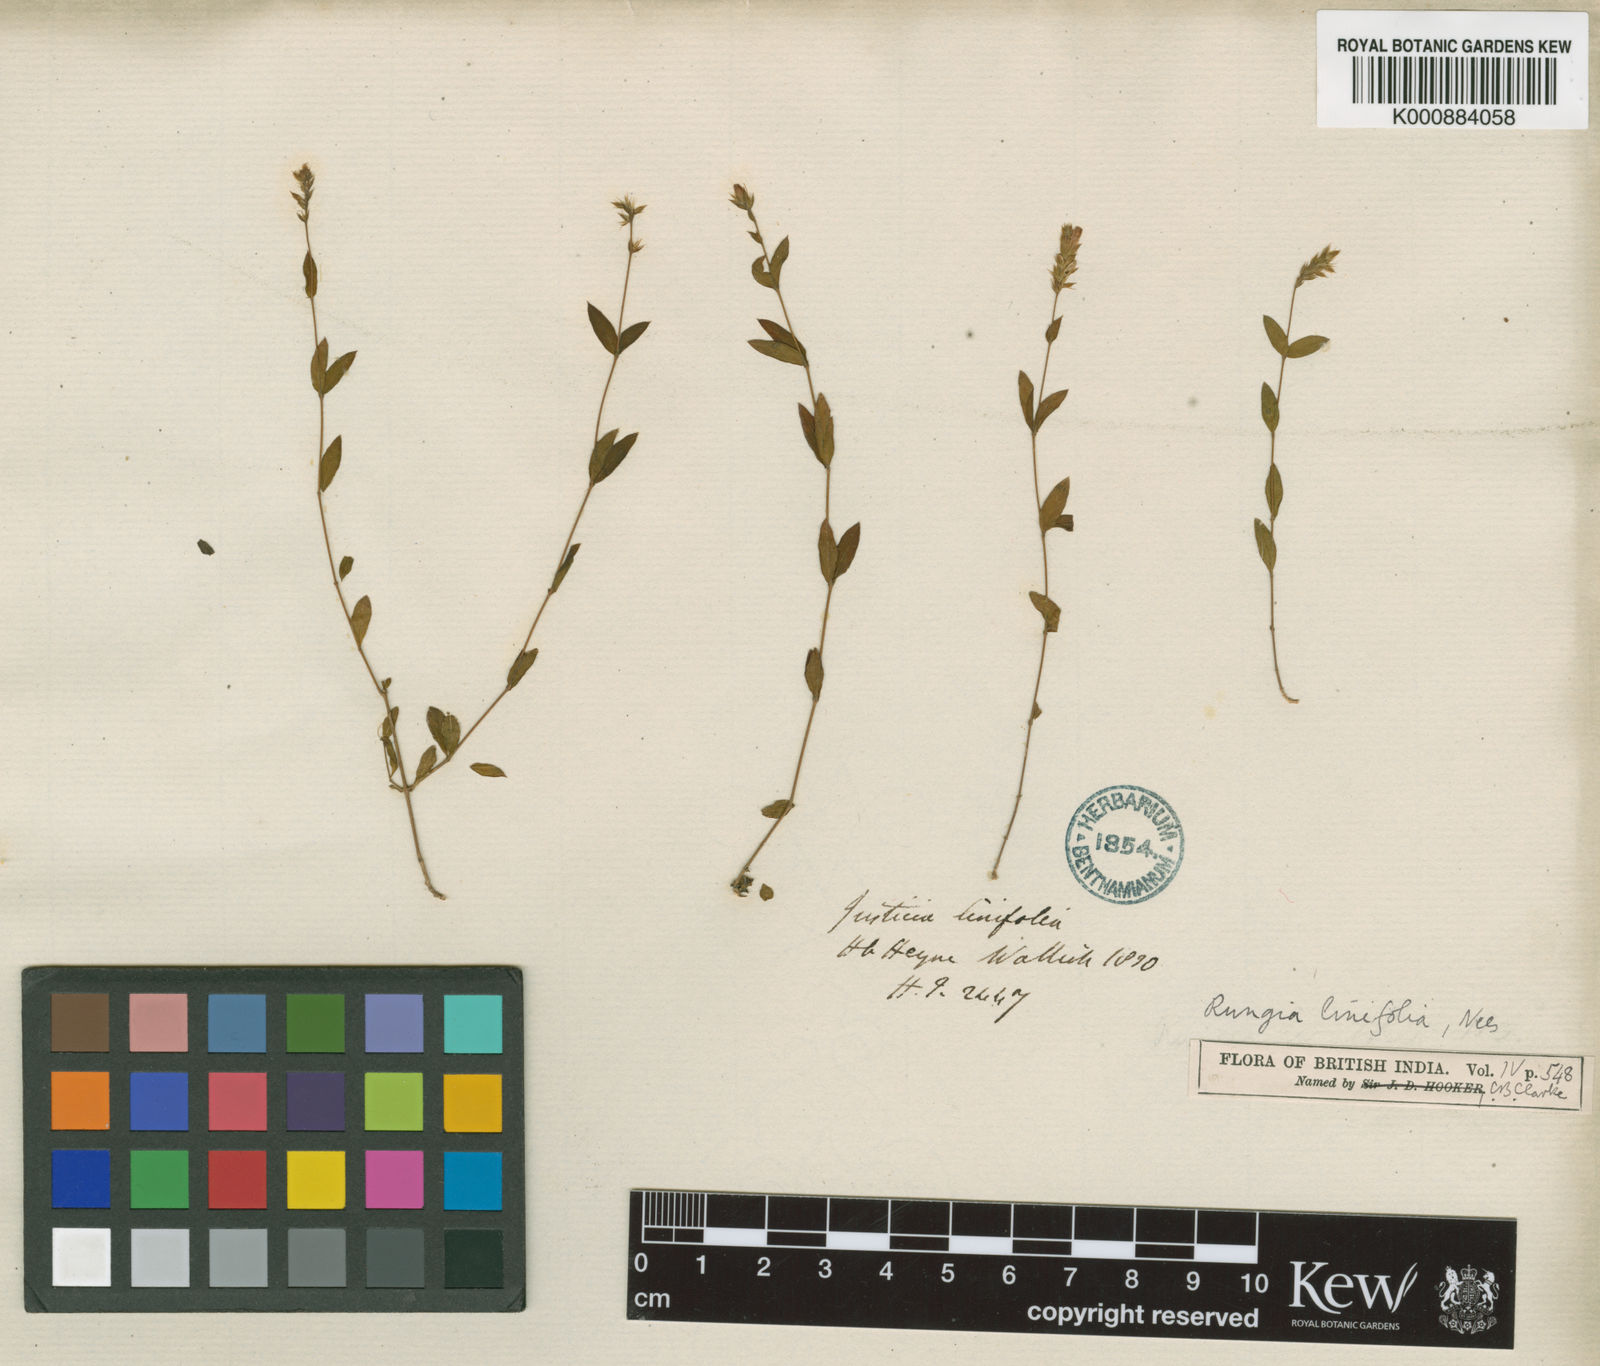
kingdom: Plantae
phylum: Tracheophyta
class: Magnoliopsida
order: Lamiales
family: Acanthaceae
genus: Rungia
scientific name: Rungia linifolia
